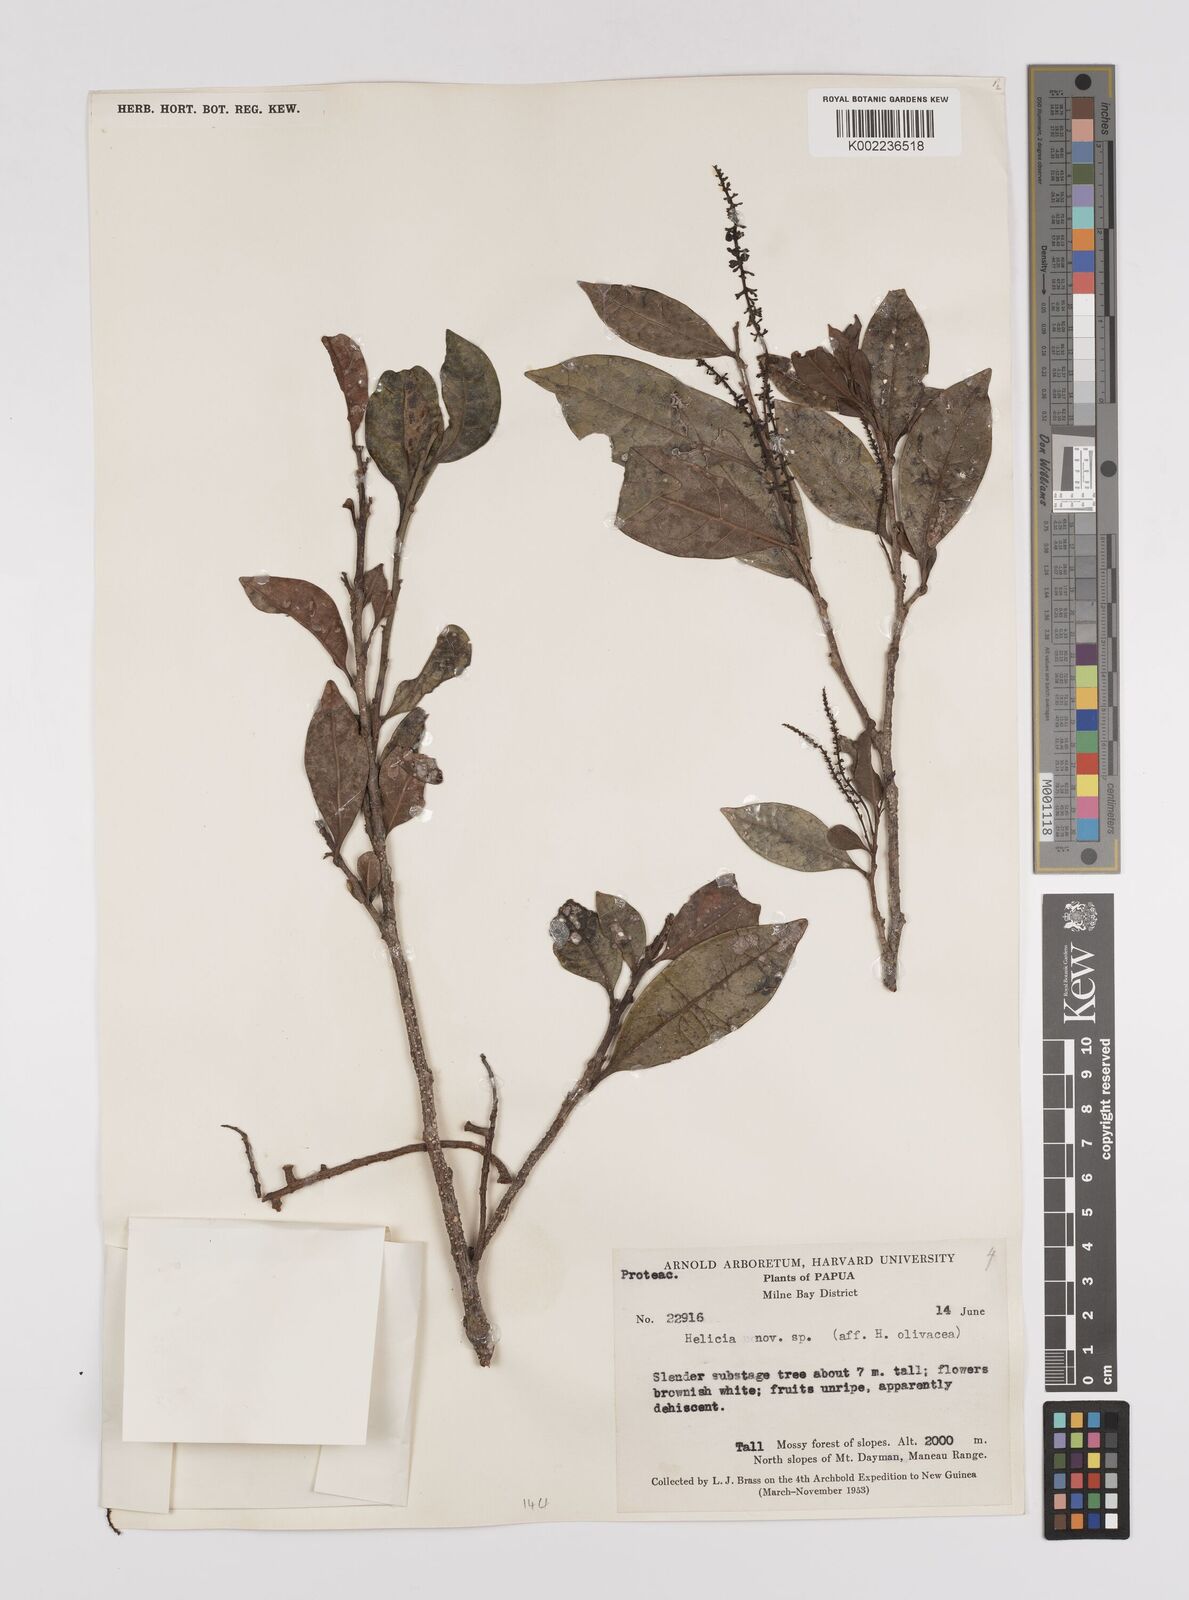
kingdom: Plantae
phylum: Tracheophyta
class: Magnoliopsida
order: Proteales
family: Proteaceae
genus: Helicia
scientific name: Helicia olivacea
